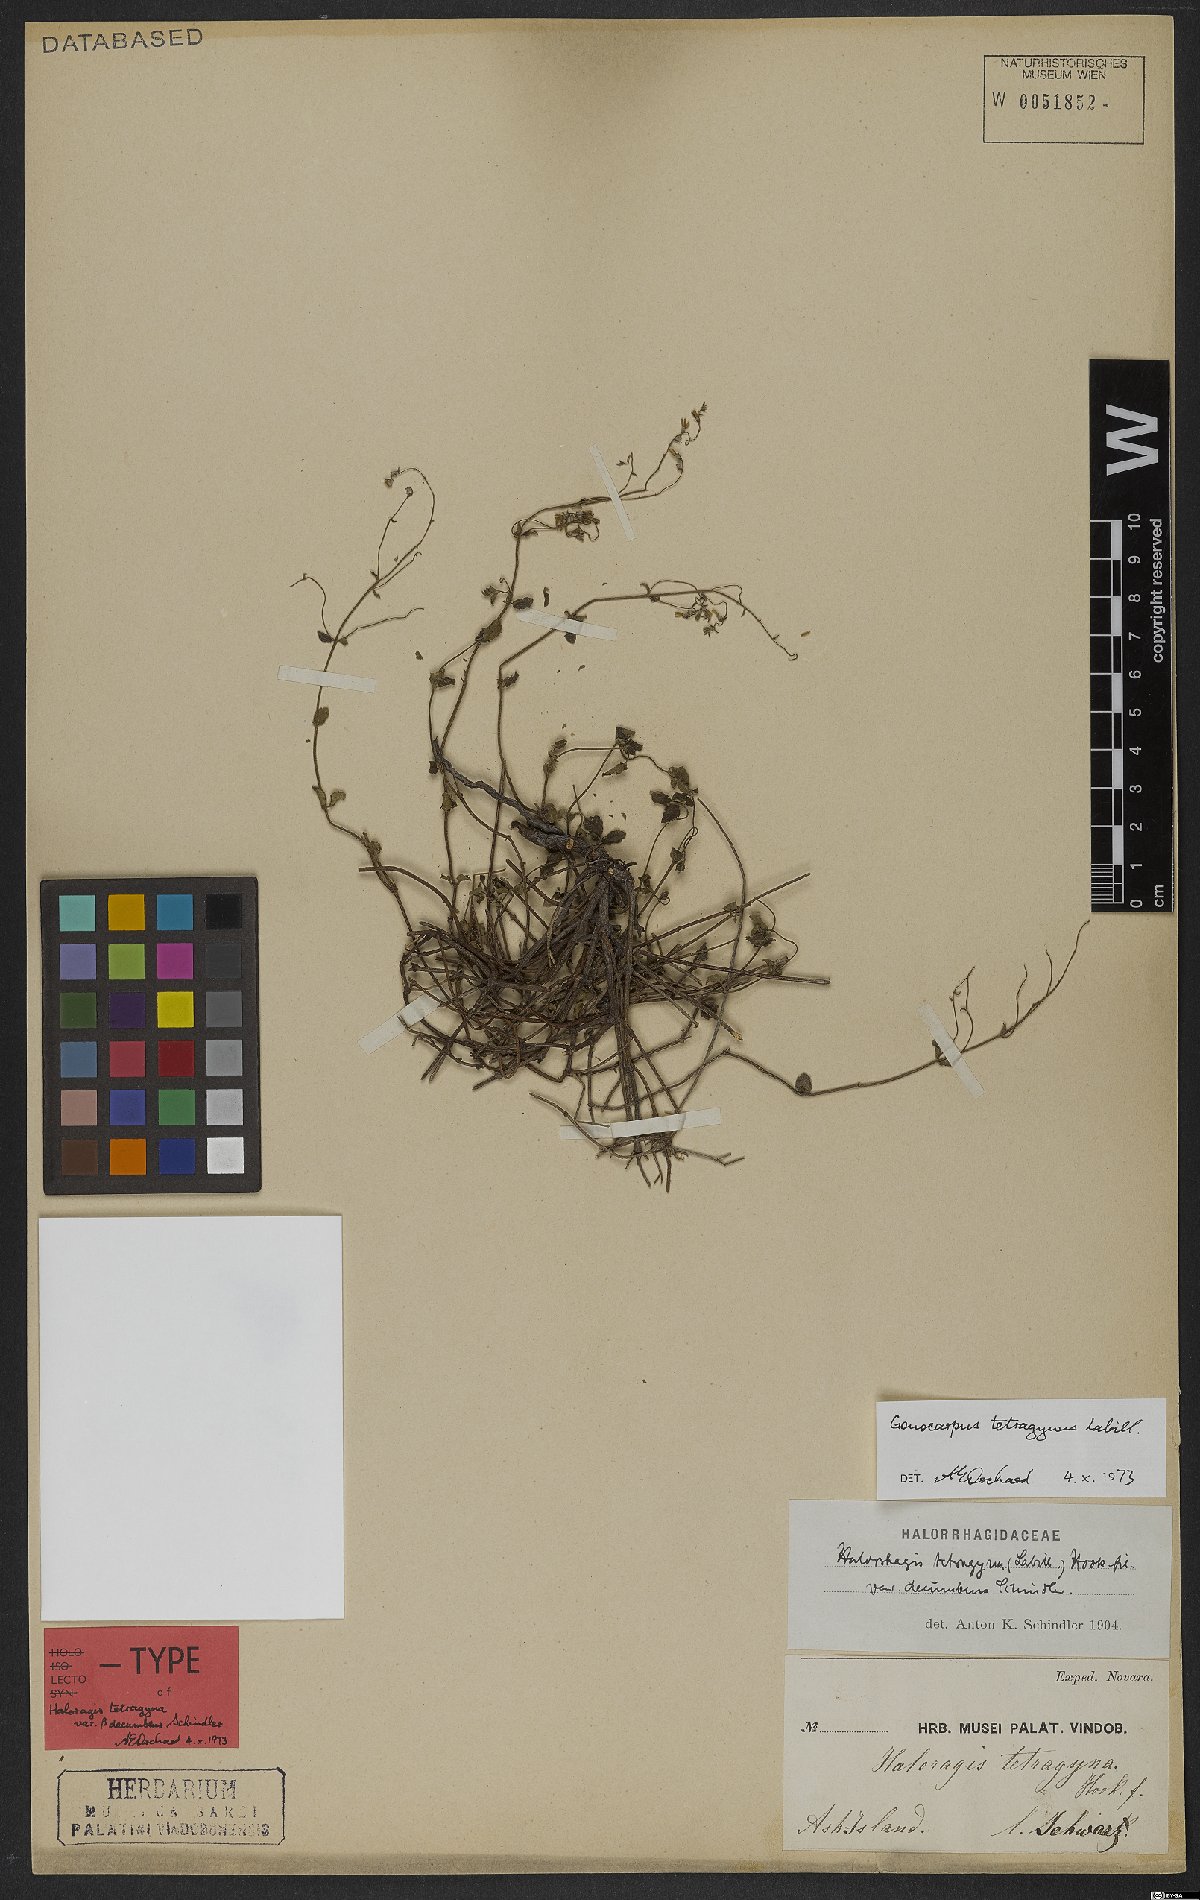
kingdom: Plantae
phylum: Tracheophyta
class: Magnoliopsida
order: Saxifragales
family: Haloragaceae
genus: Gonocarpus
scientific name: Gonocarpus tetragynus
